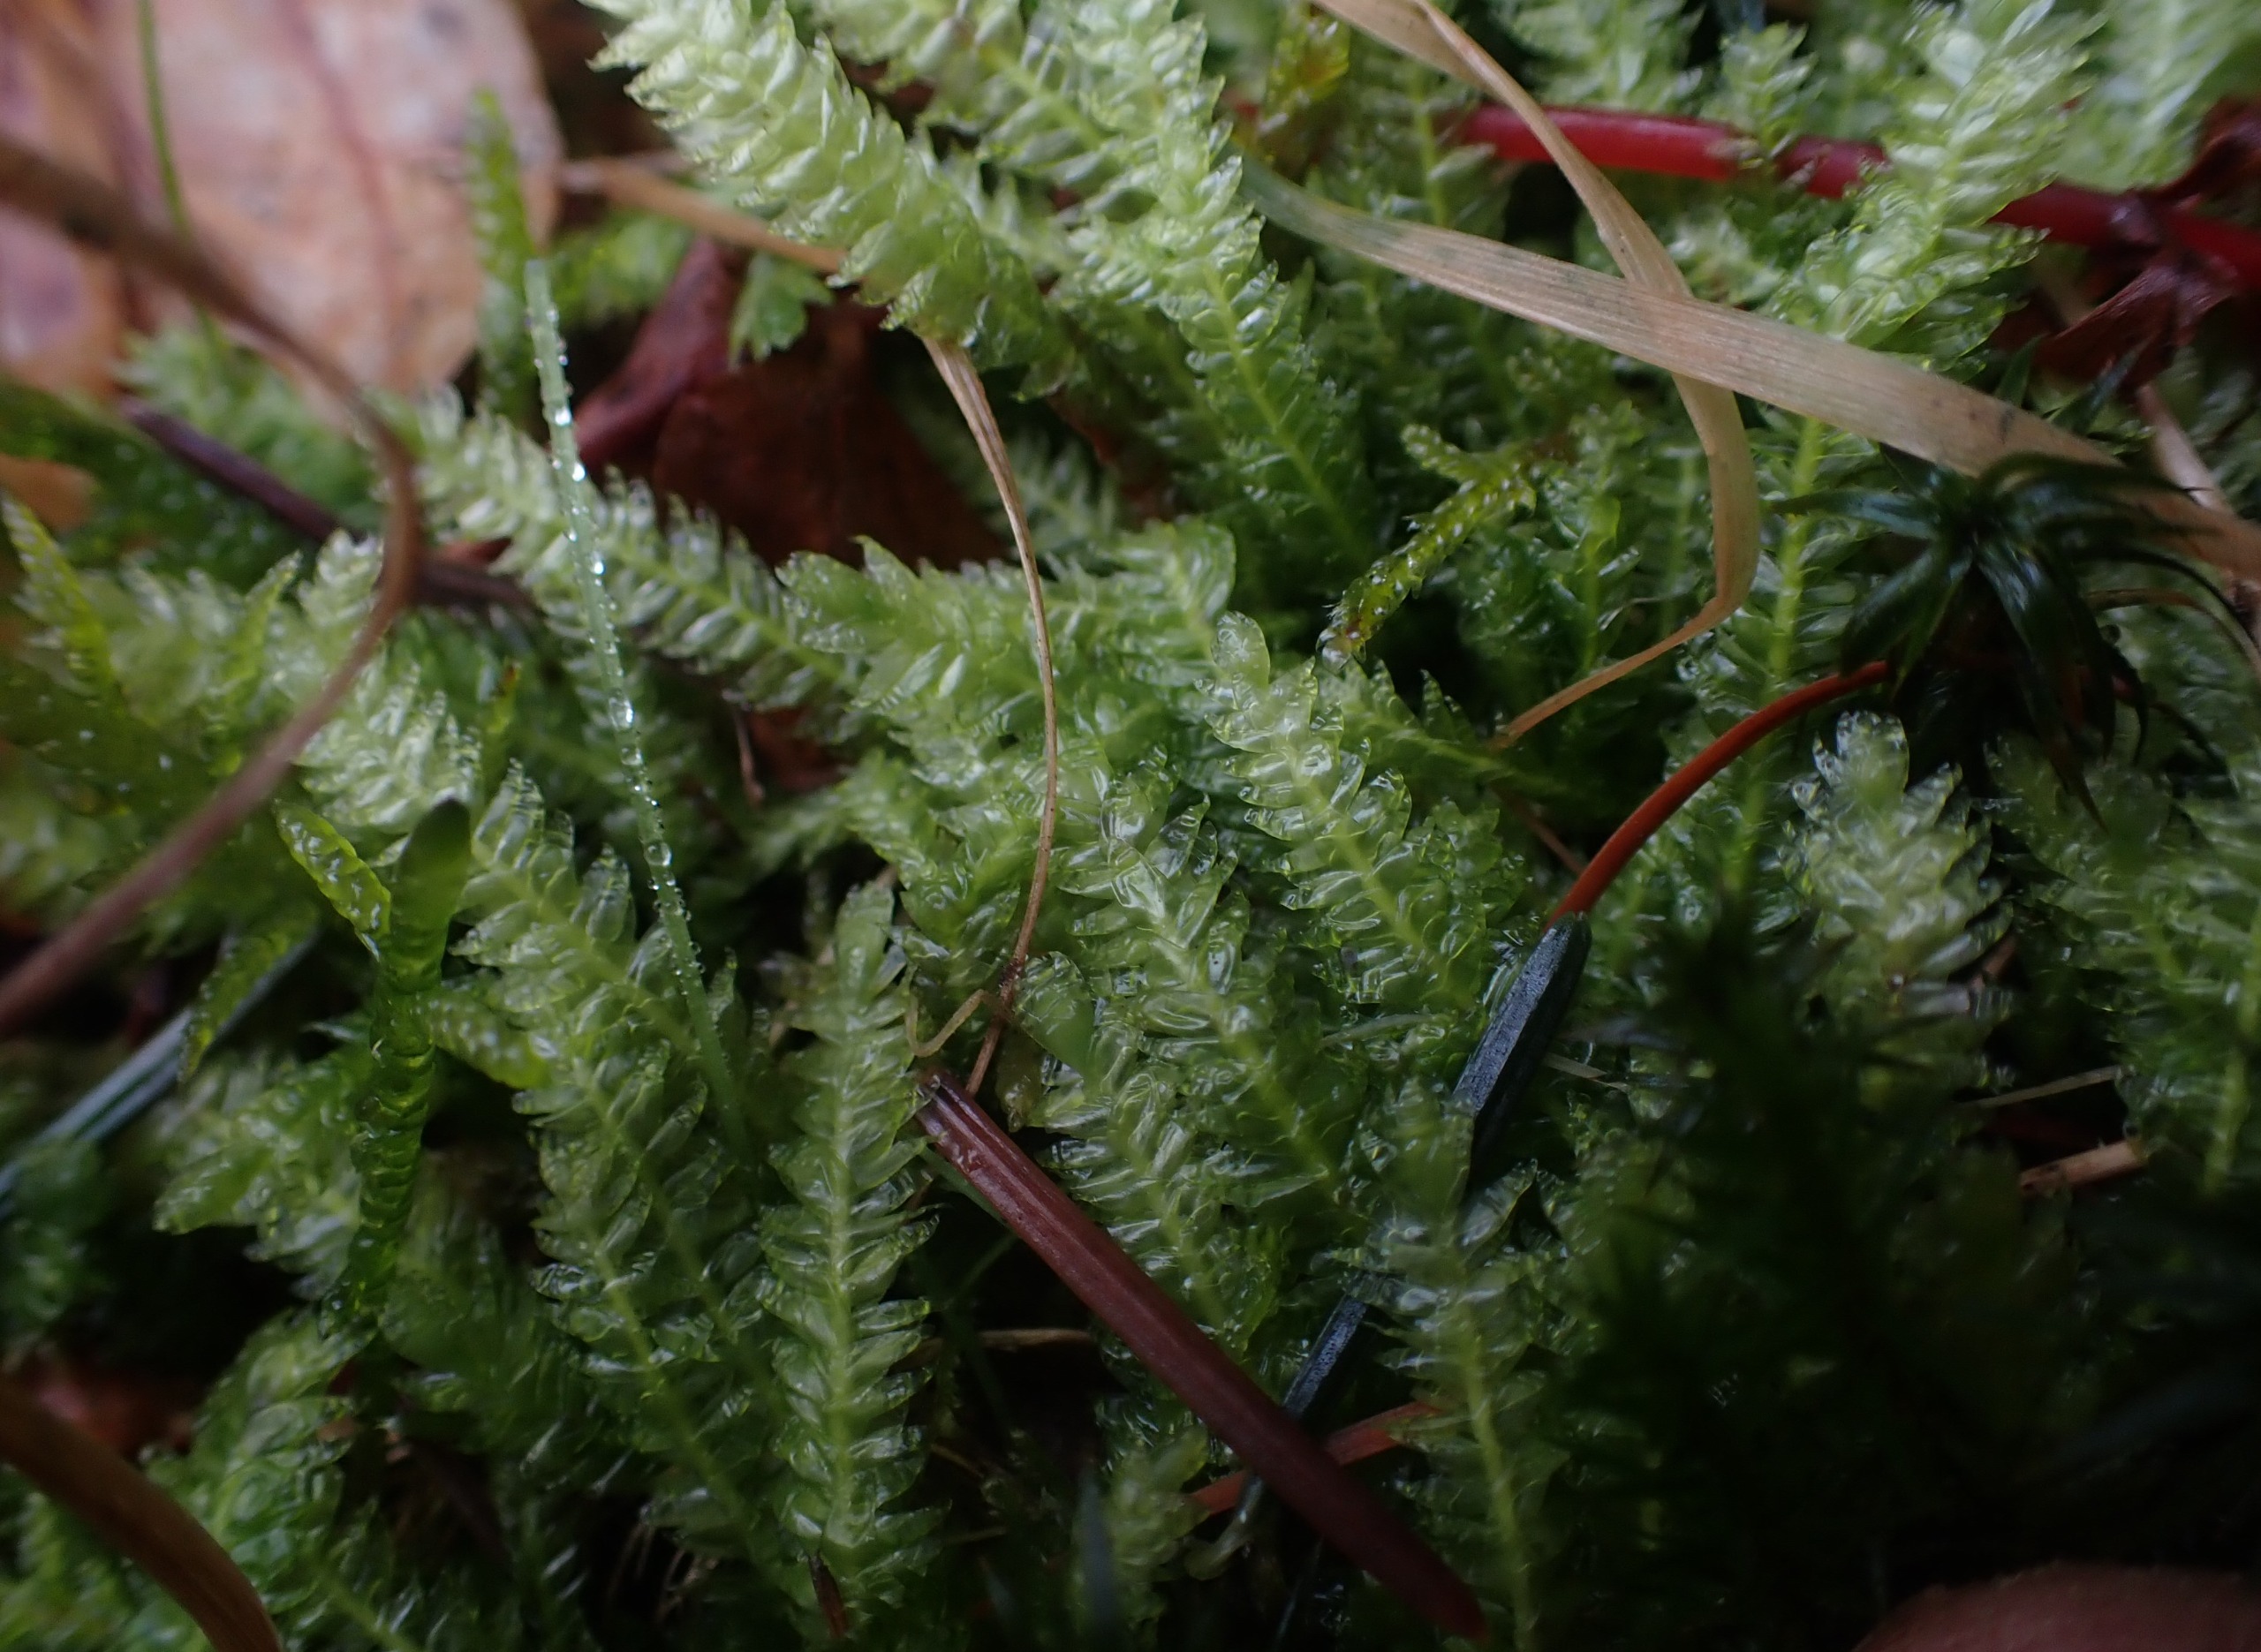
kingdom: Plantae
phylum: Bryophyta
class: Bryopsida
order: Hypnales
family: Plagiotheciaceae
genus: Plagiothecium
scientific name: Plagiothecium undulatum
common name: Bølget tæppemos
